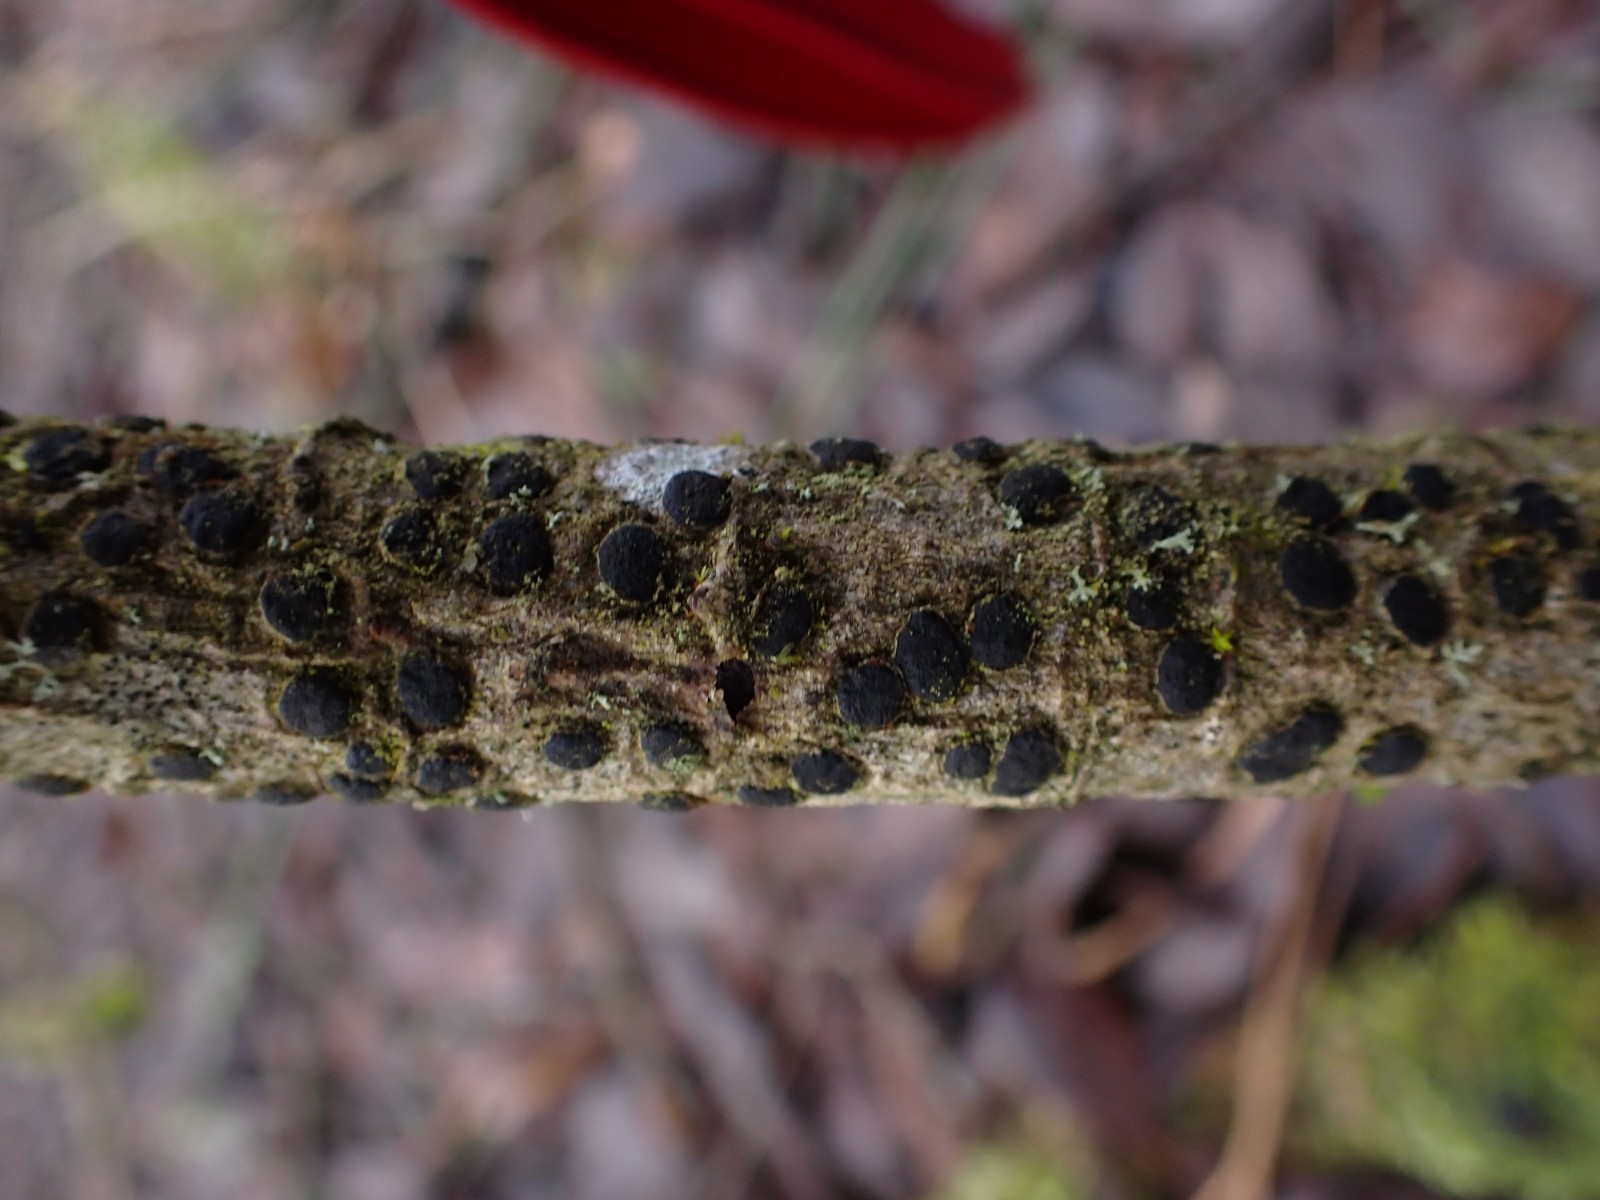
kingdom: Fungi
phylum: Ascomycota
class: Sordariomycetes
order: Xylariales
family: Diatrypaceae
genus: Diatrype
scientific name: Diatrype bullata
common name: pile-kulskorpe
